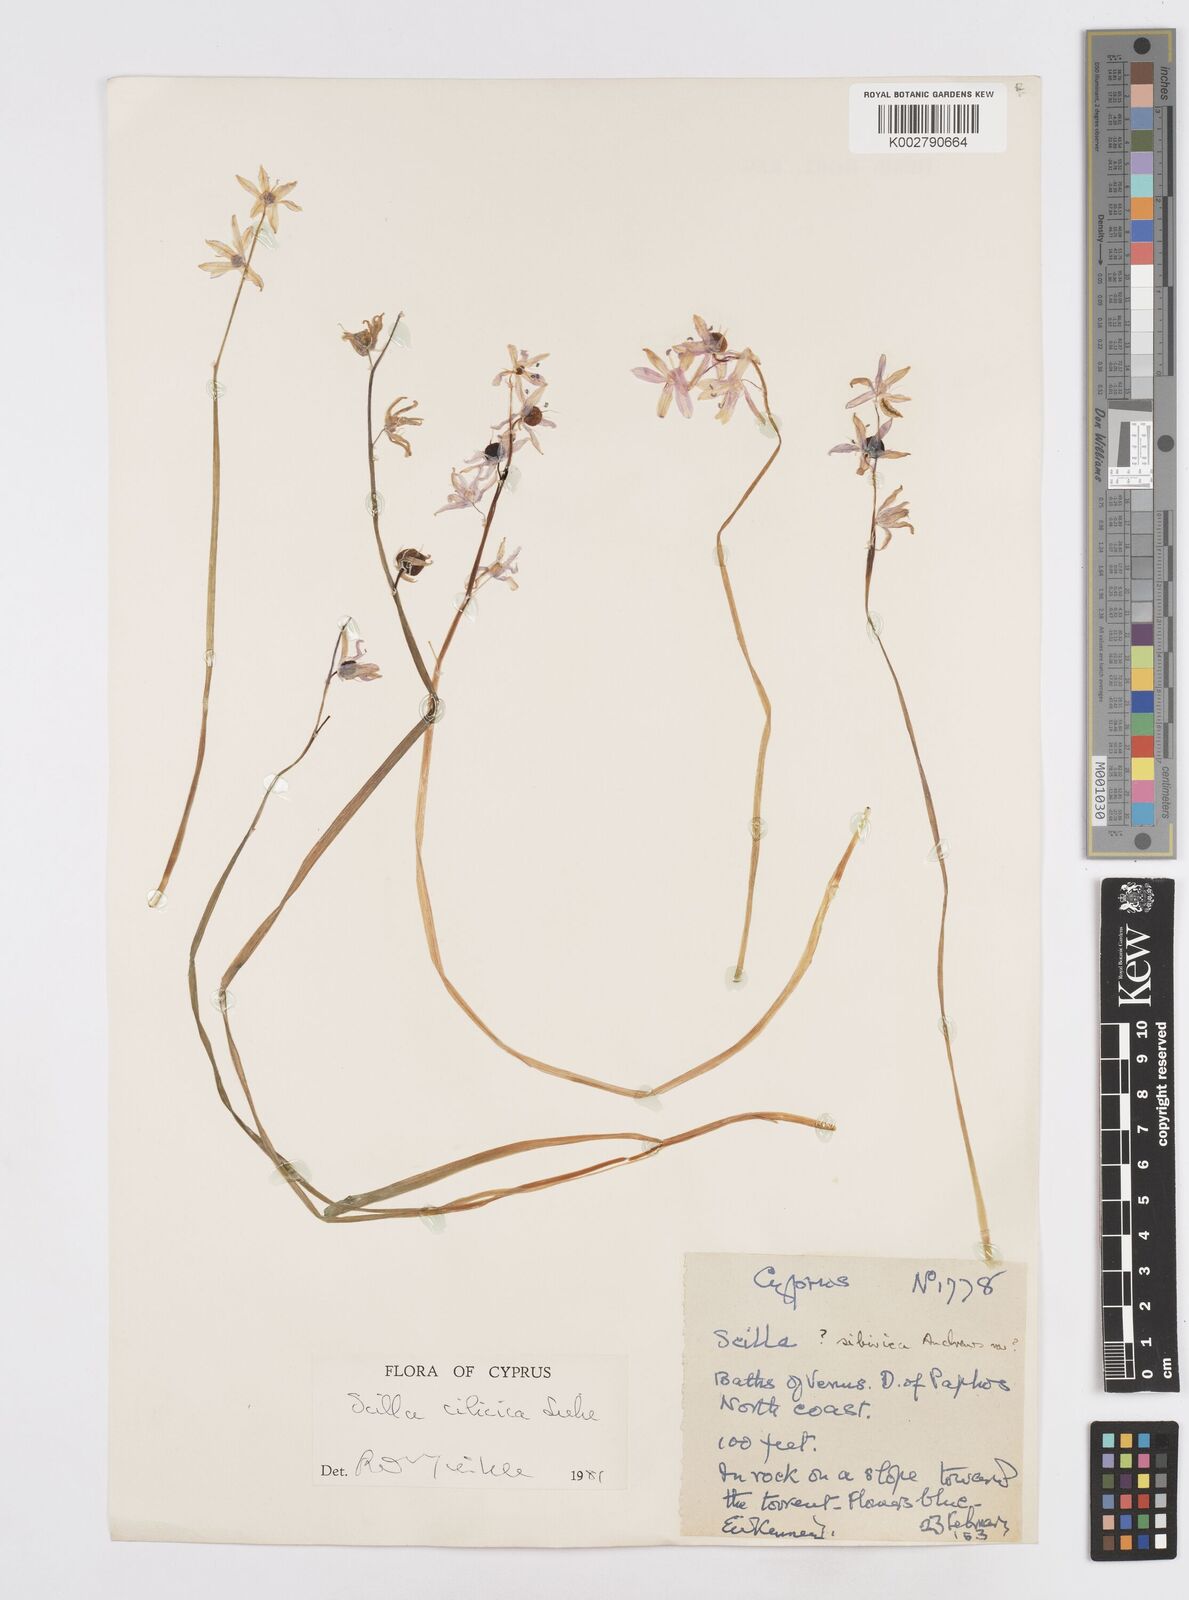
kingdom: Plantae
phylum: Tracheophyta
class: Liliopsida
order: Asparagales
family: Asparagaceae
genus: Scilla
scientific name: Scilla cilicica
